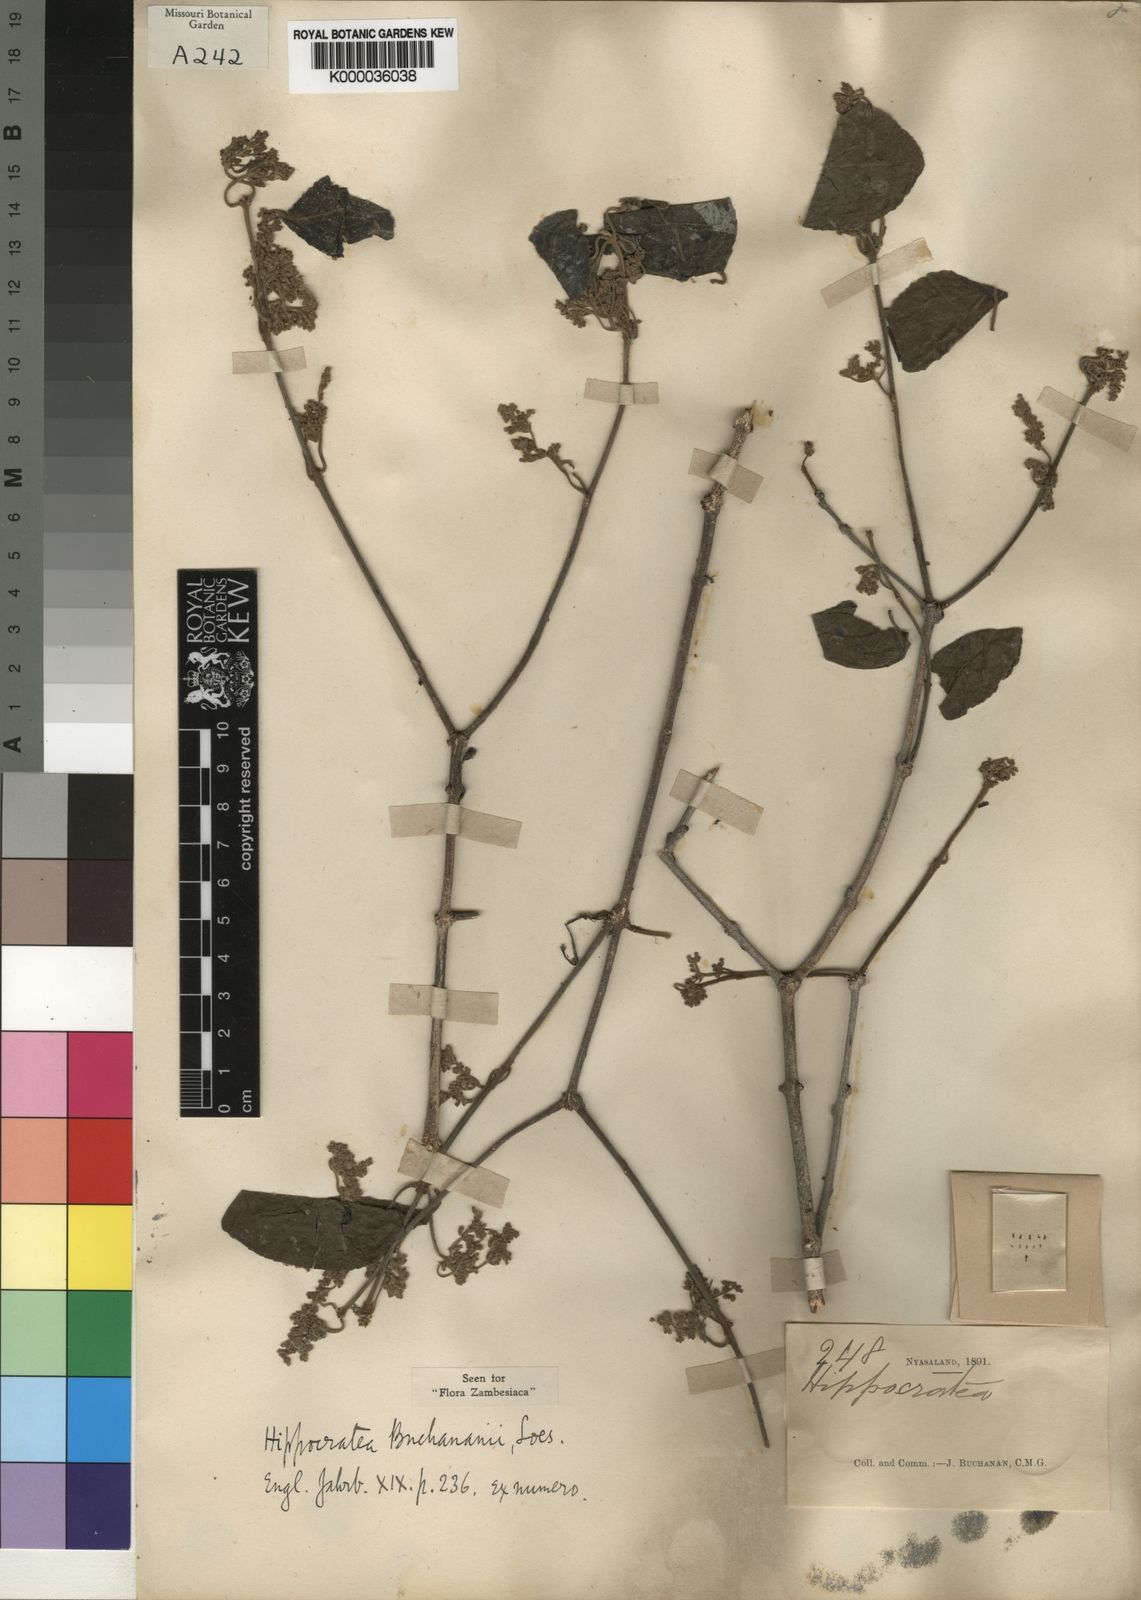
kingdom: Plantae
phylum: Tracheophyta
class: Magnoliopsida
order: Celastrales
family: Celastraceae
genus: Reissantia
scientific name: Reissantia buchananii
